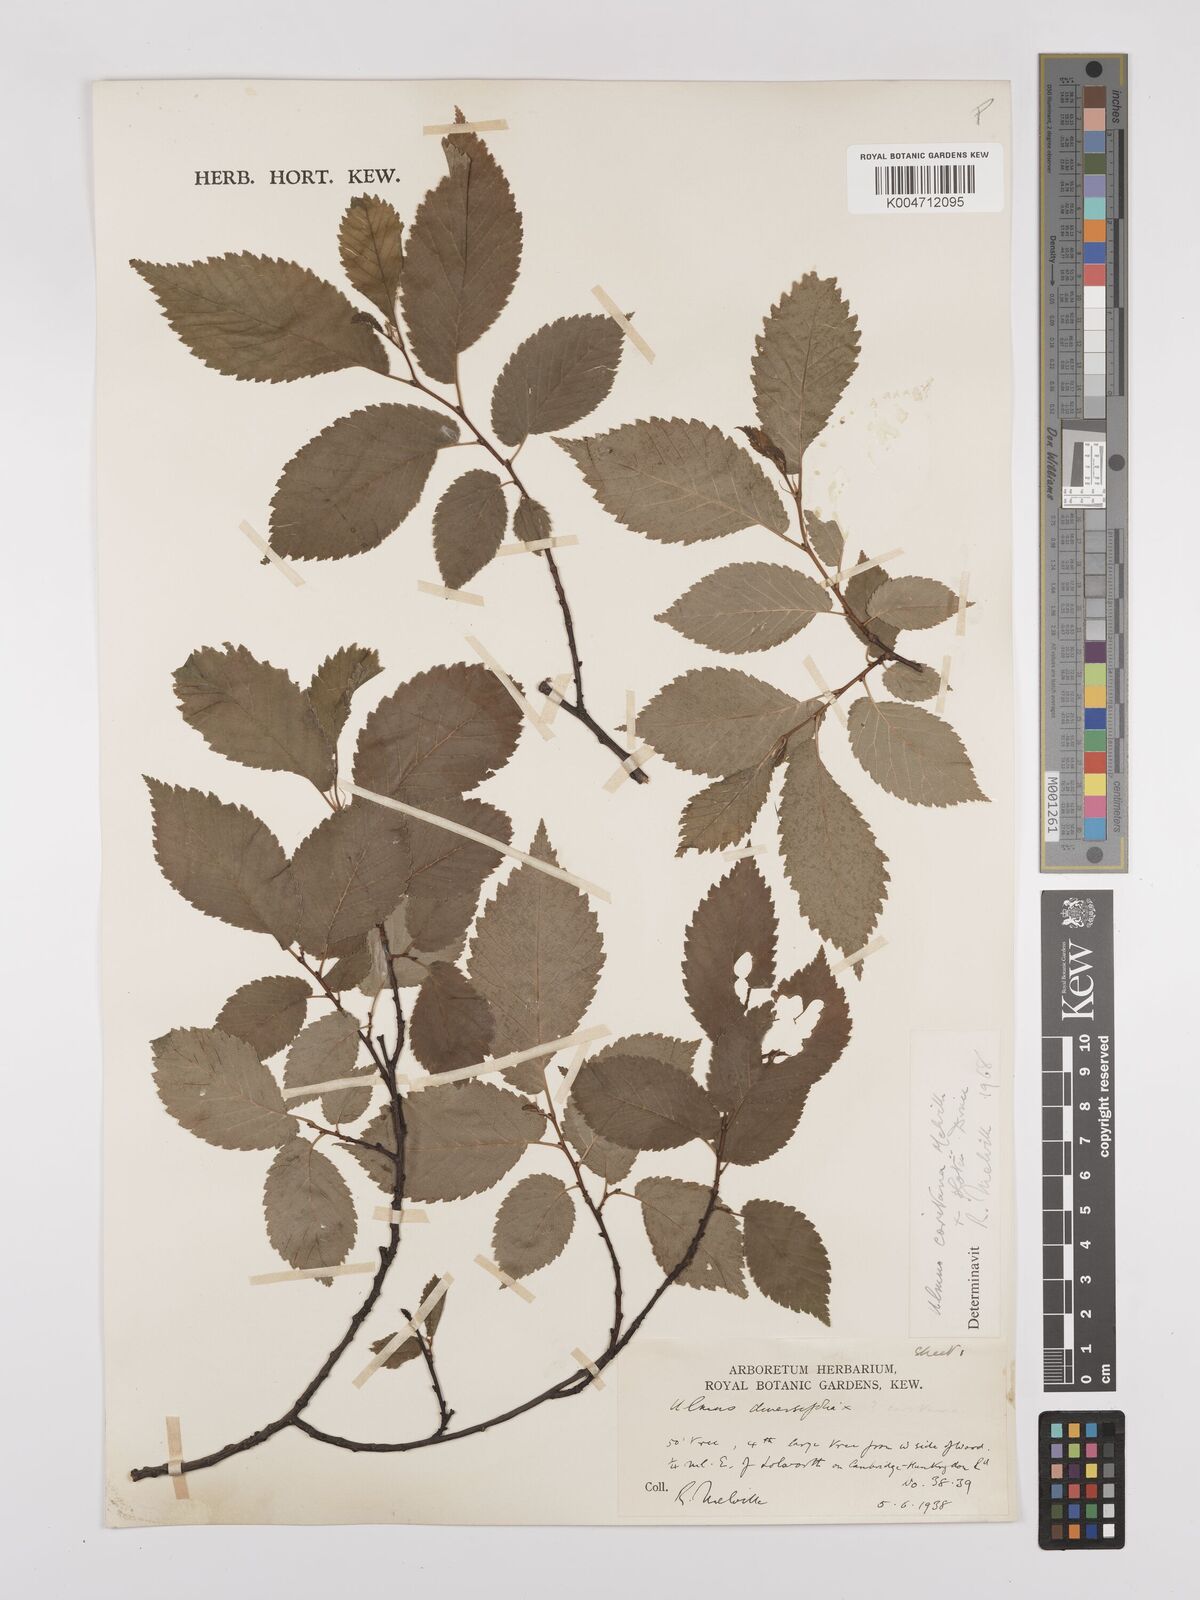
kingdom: Plantae
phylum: Tracheophyta
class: Magnoliopsida
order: Rosales
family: Ulmaceae
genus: Ulmus
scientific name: Ulmus minor
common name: Small-leaved elm
